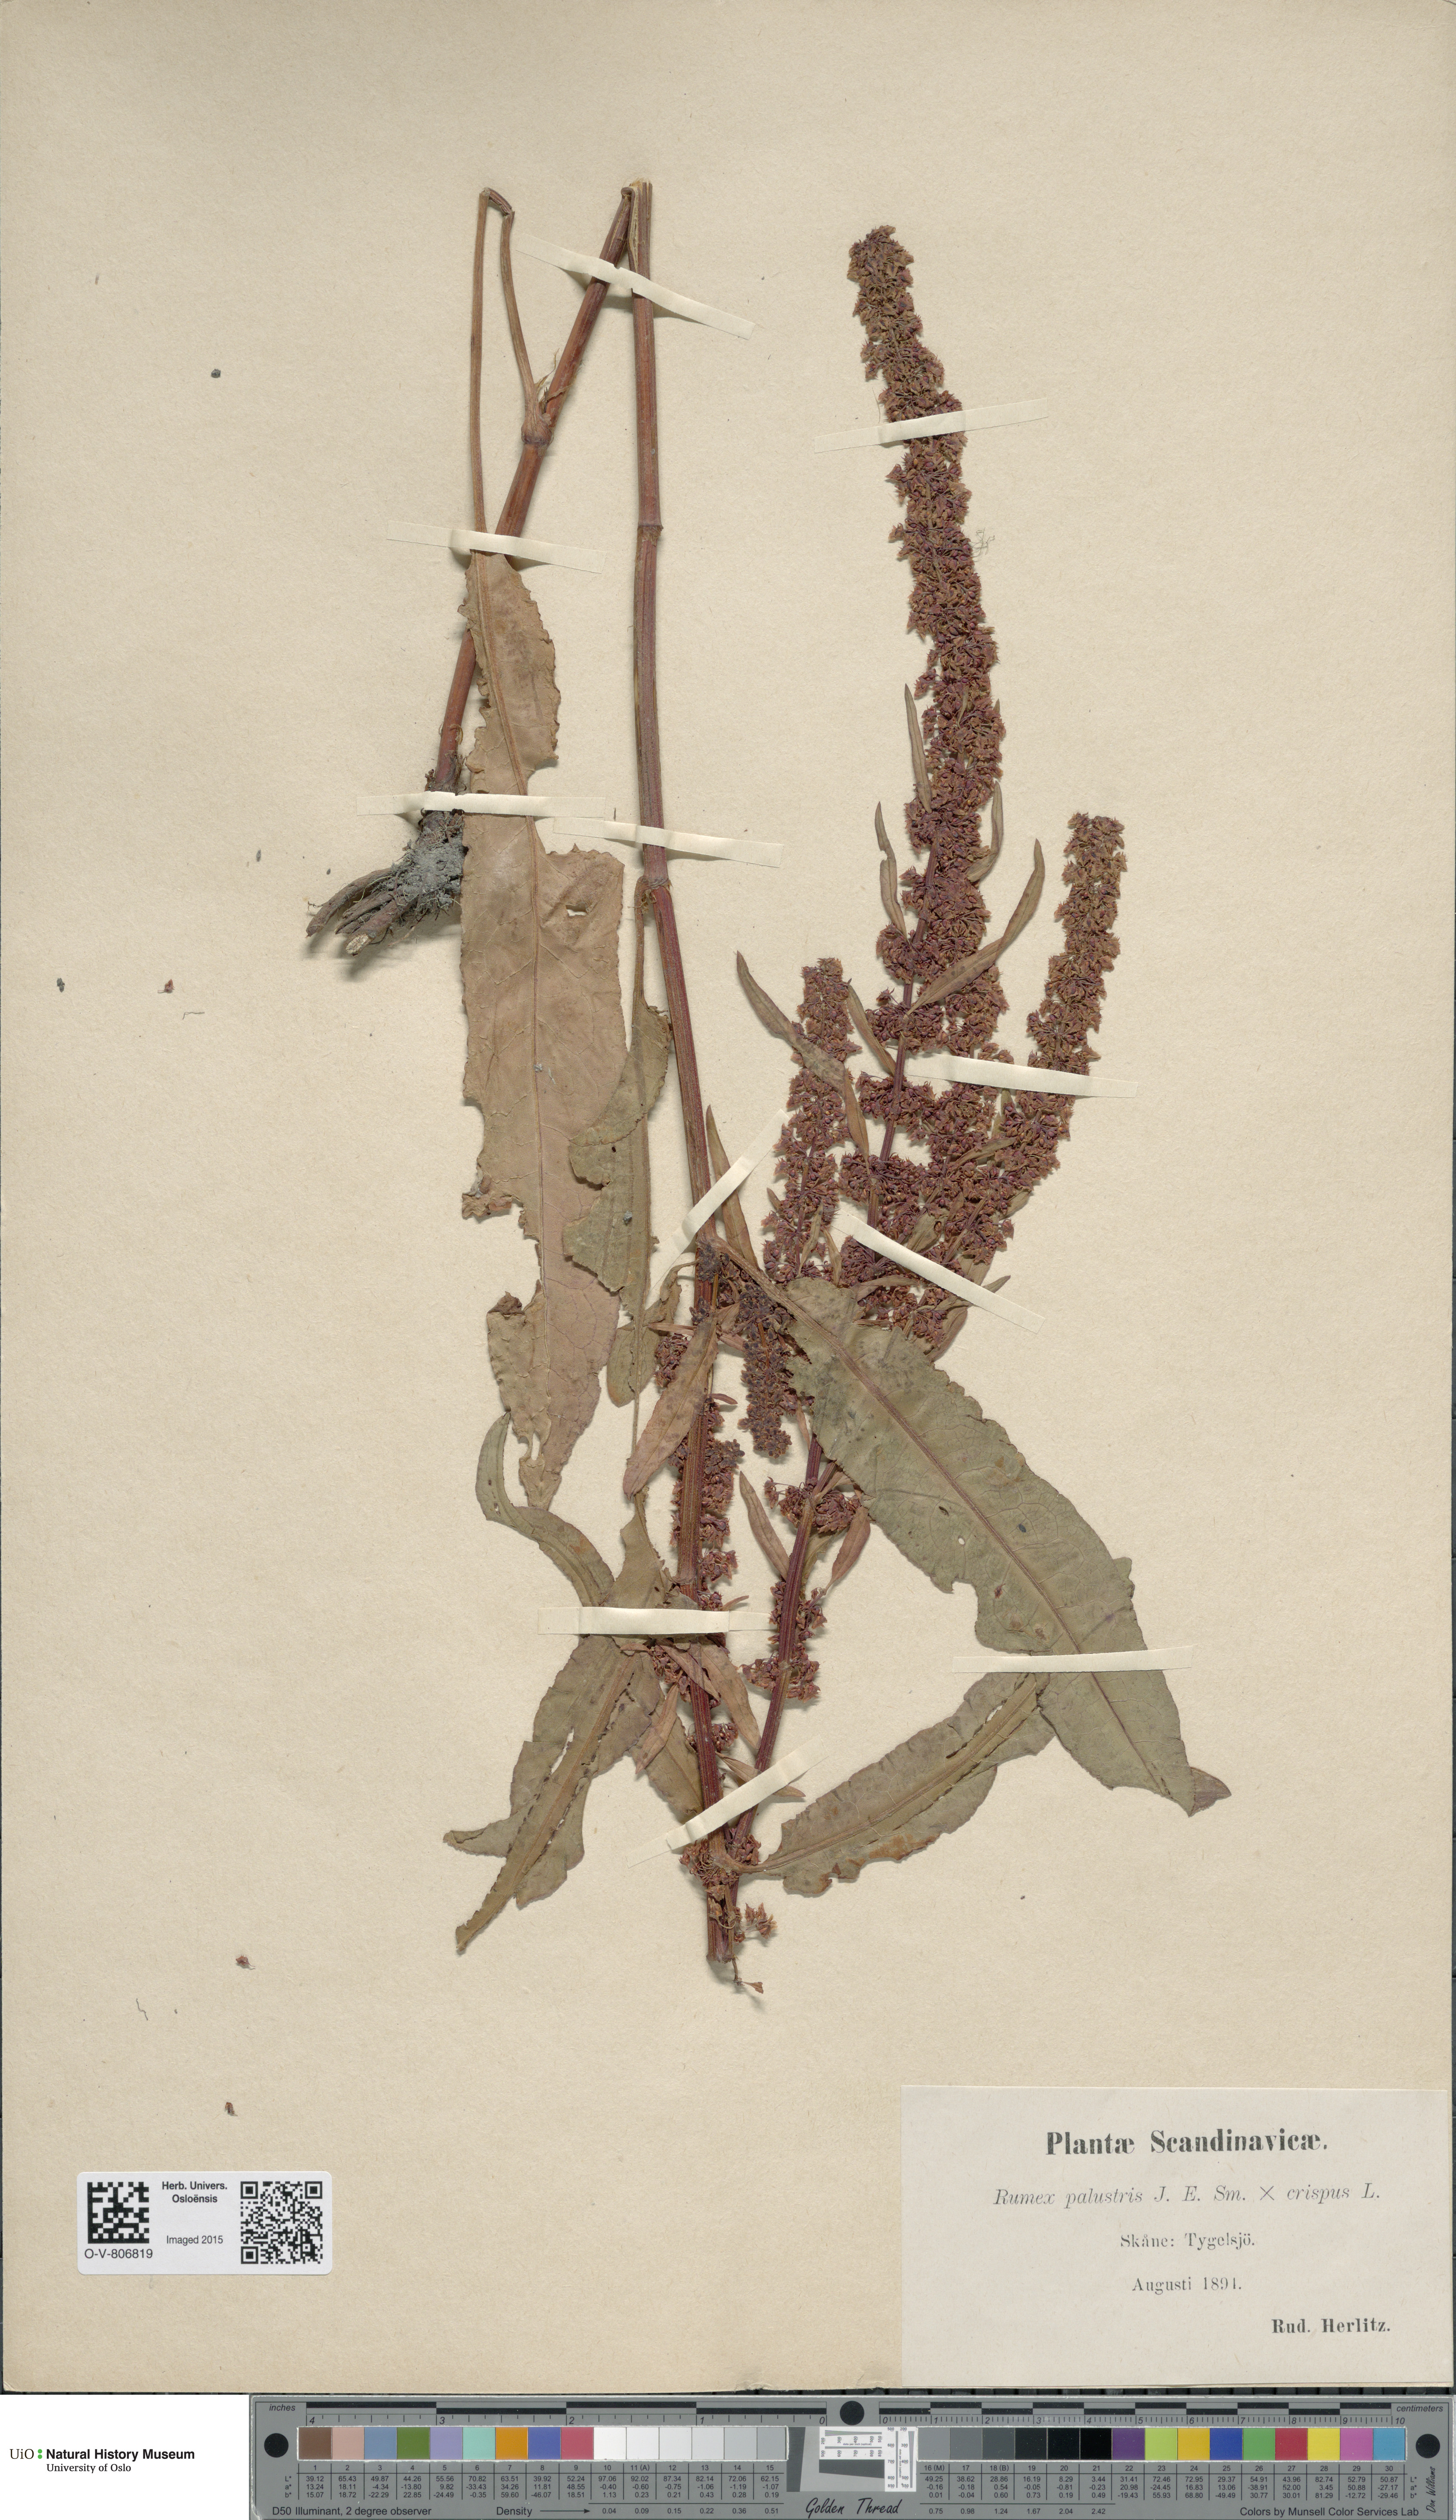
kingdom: Plantae
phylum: Tracheophyta
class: Magnoliopsida
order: Caryophyllales
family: Polygonaceae
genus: Rumex
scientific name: Rumex
